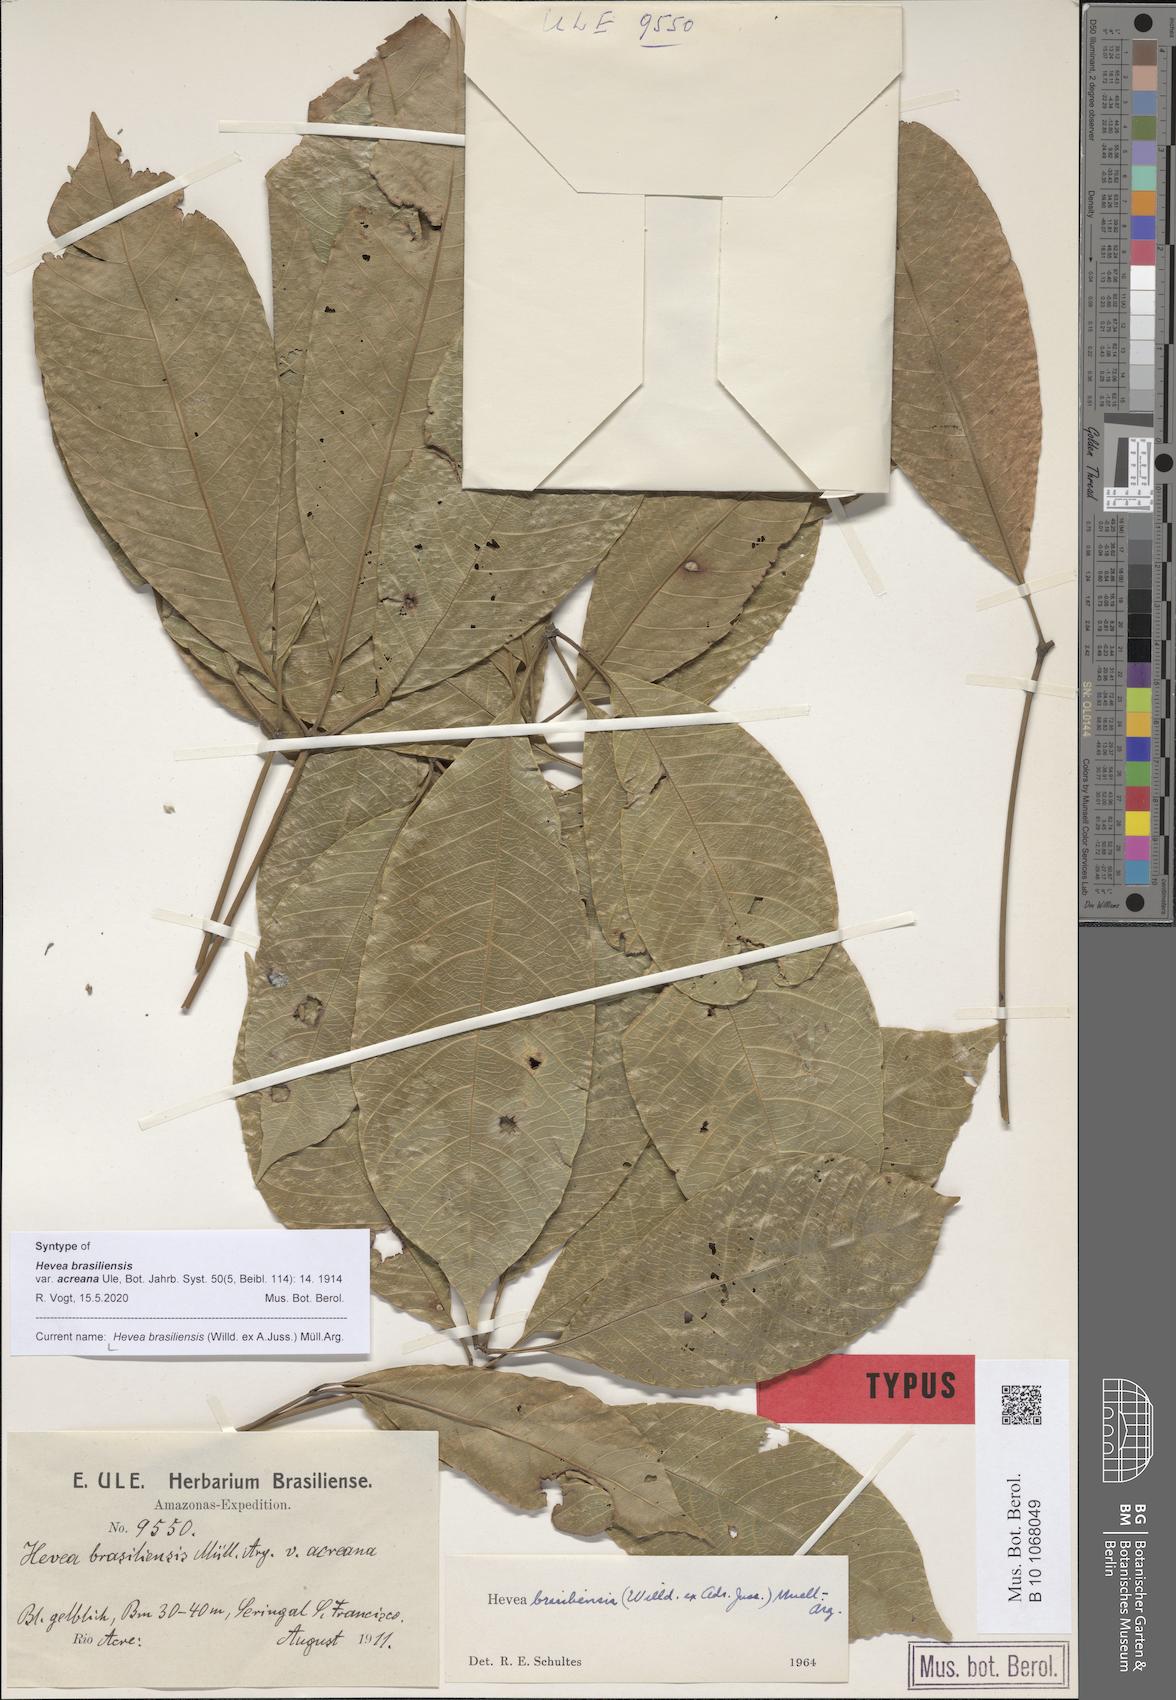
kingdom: Plantae
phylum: Tracheophyta
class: Magnoliopsida
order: Malpighiales
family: Euphorbiaceae
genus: Hevea
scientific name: Hevea brasiliensis
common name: Natural rubber
